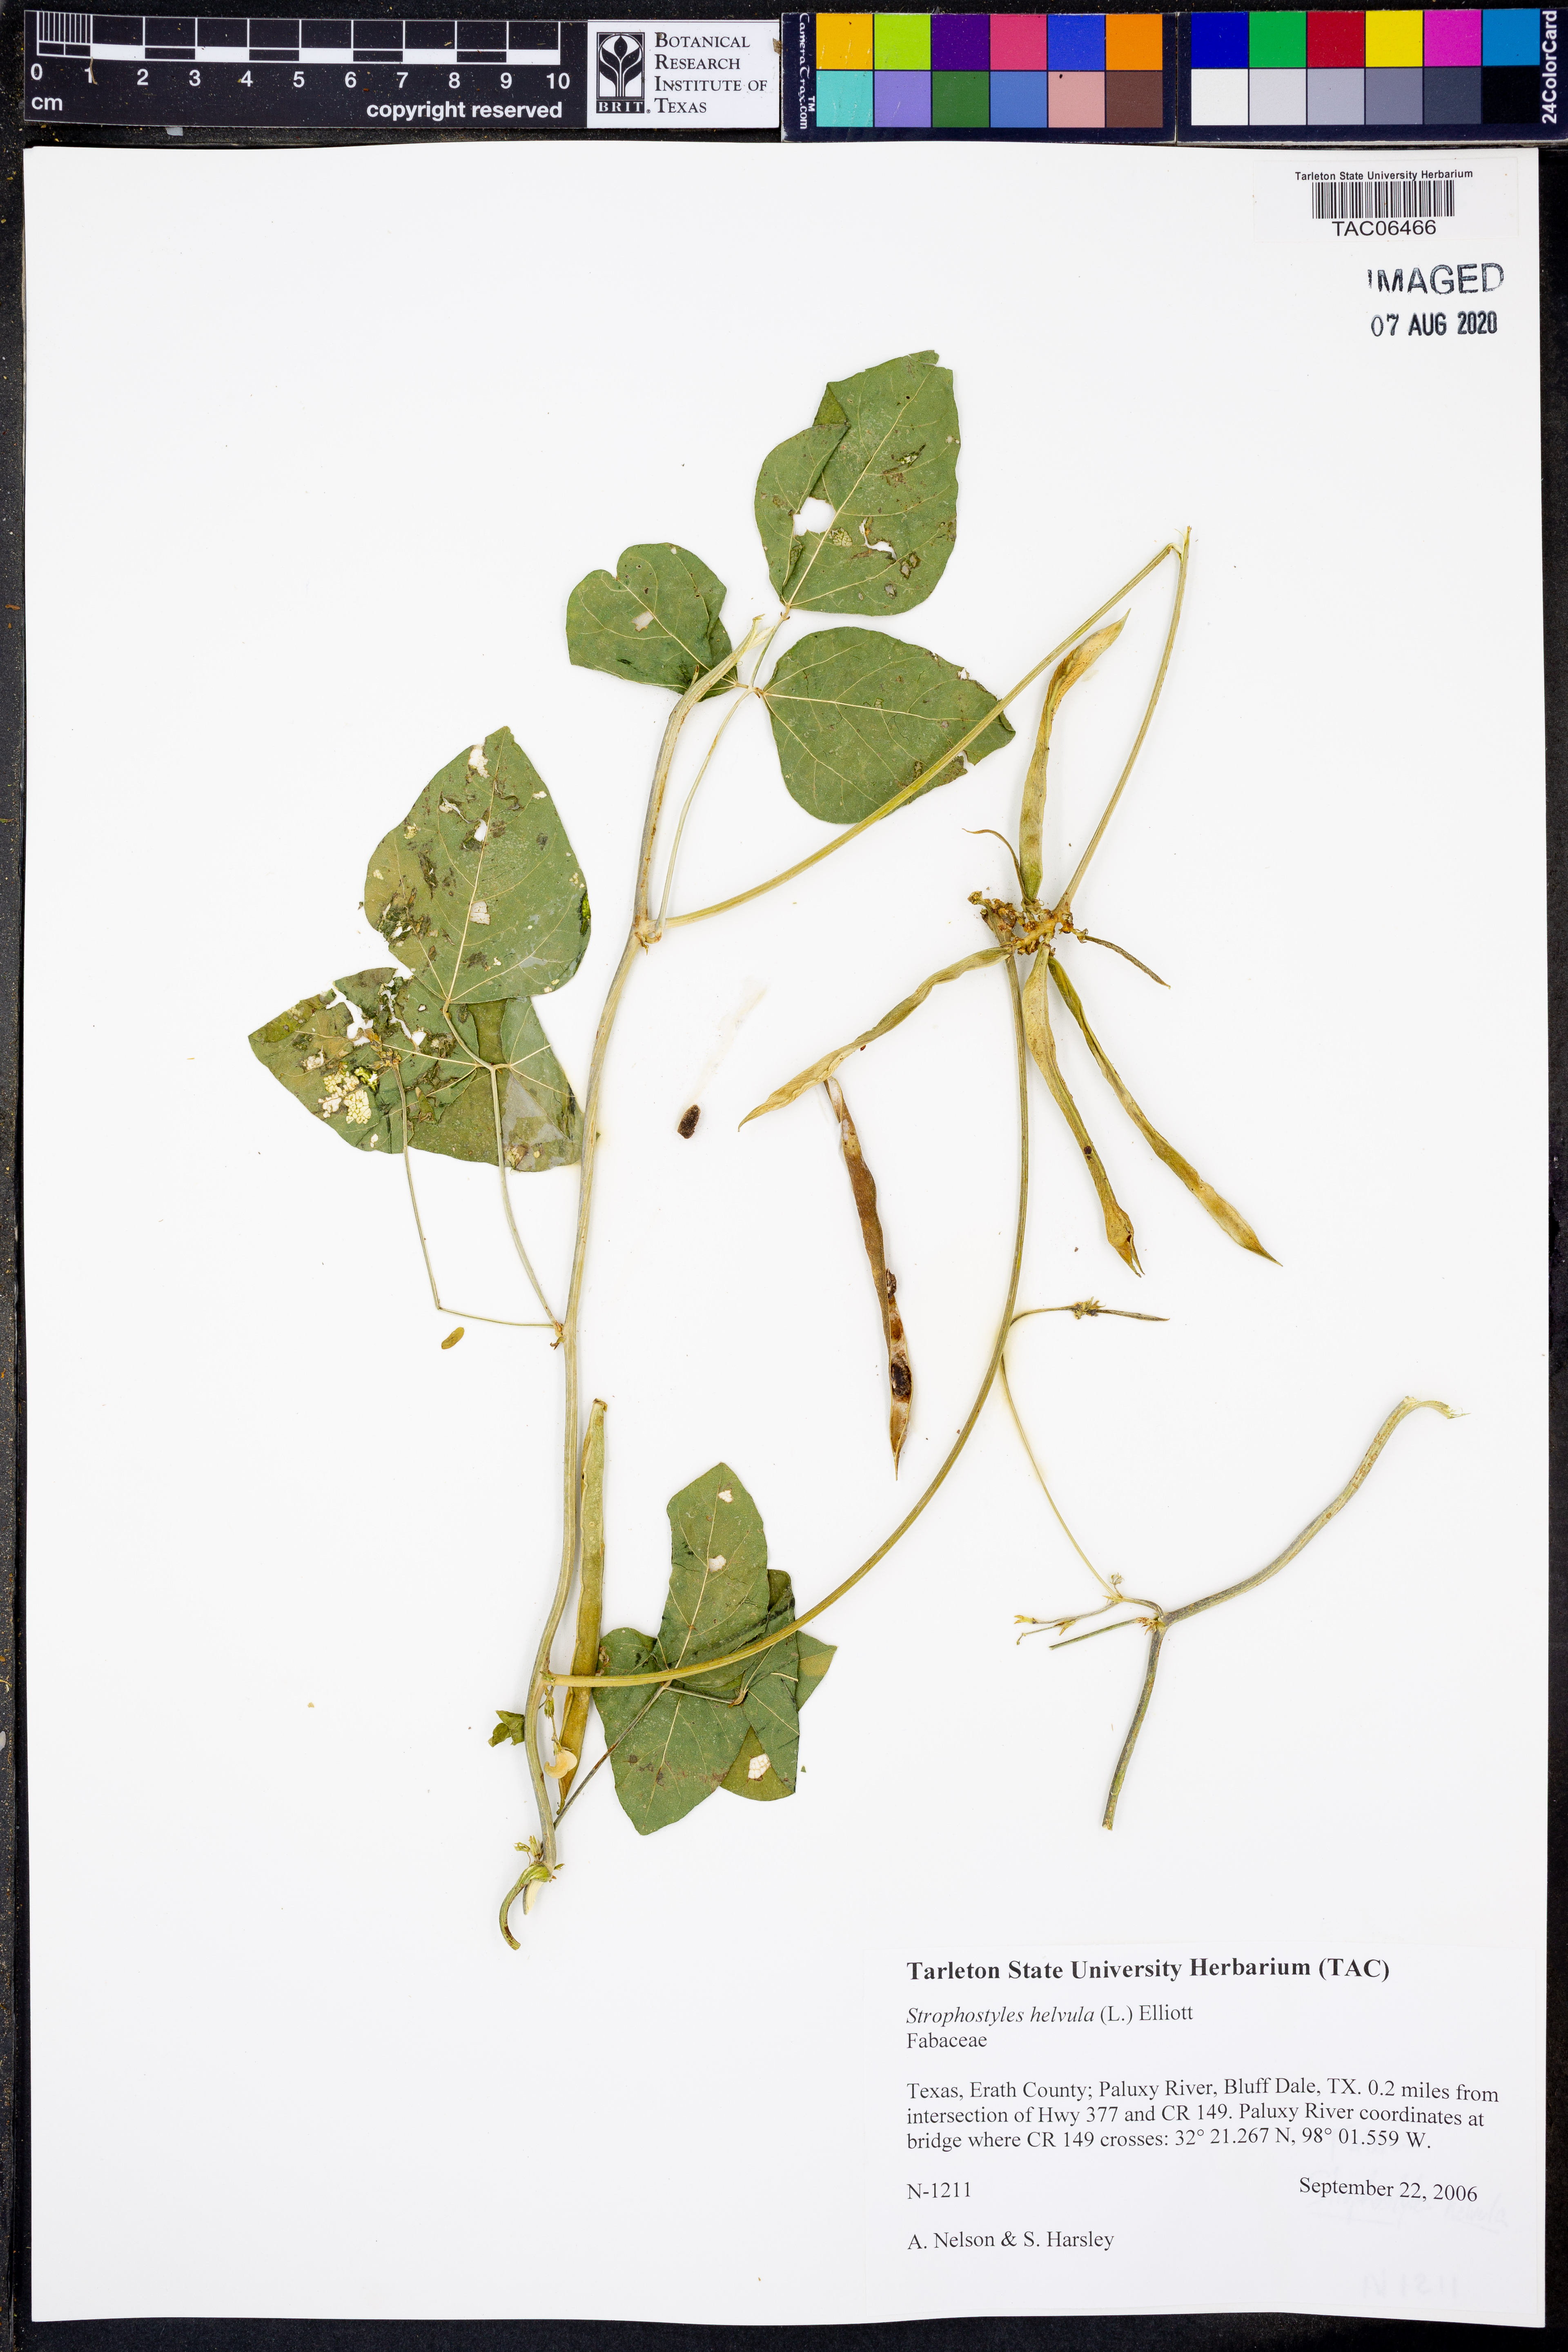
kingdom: Plantae
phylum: Tracheophyta
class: Magnoliopsida
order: Fabales
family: Fabaceae
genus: Strophostyles
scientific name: Strophostyles helvula
